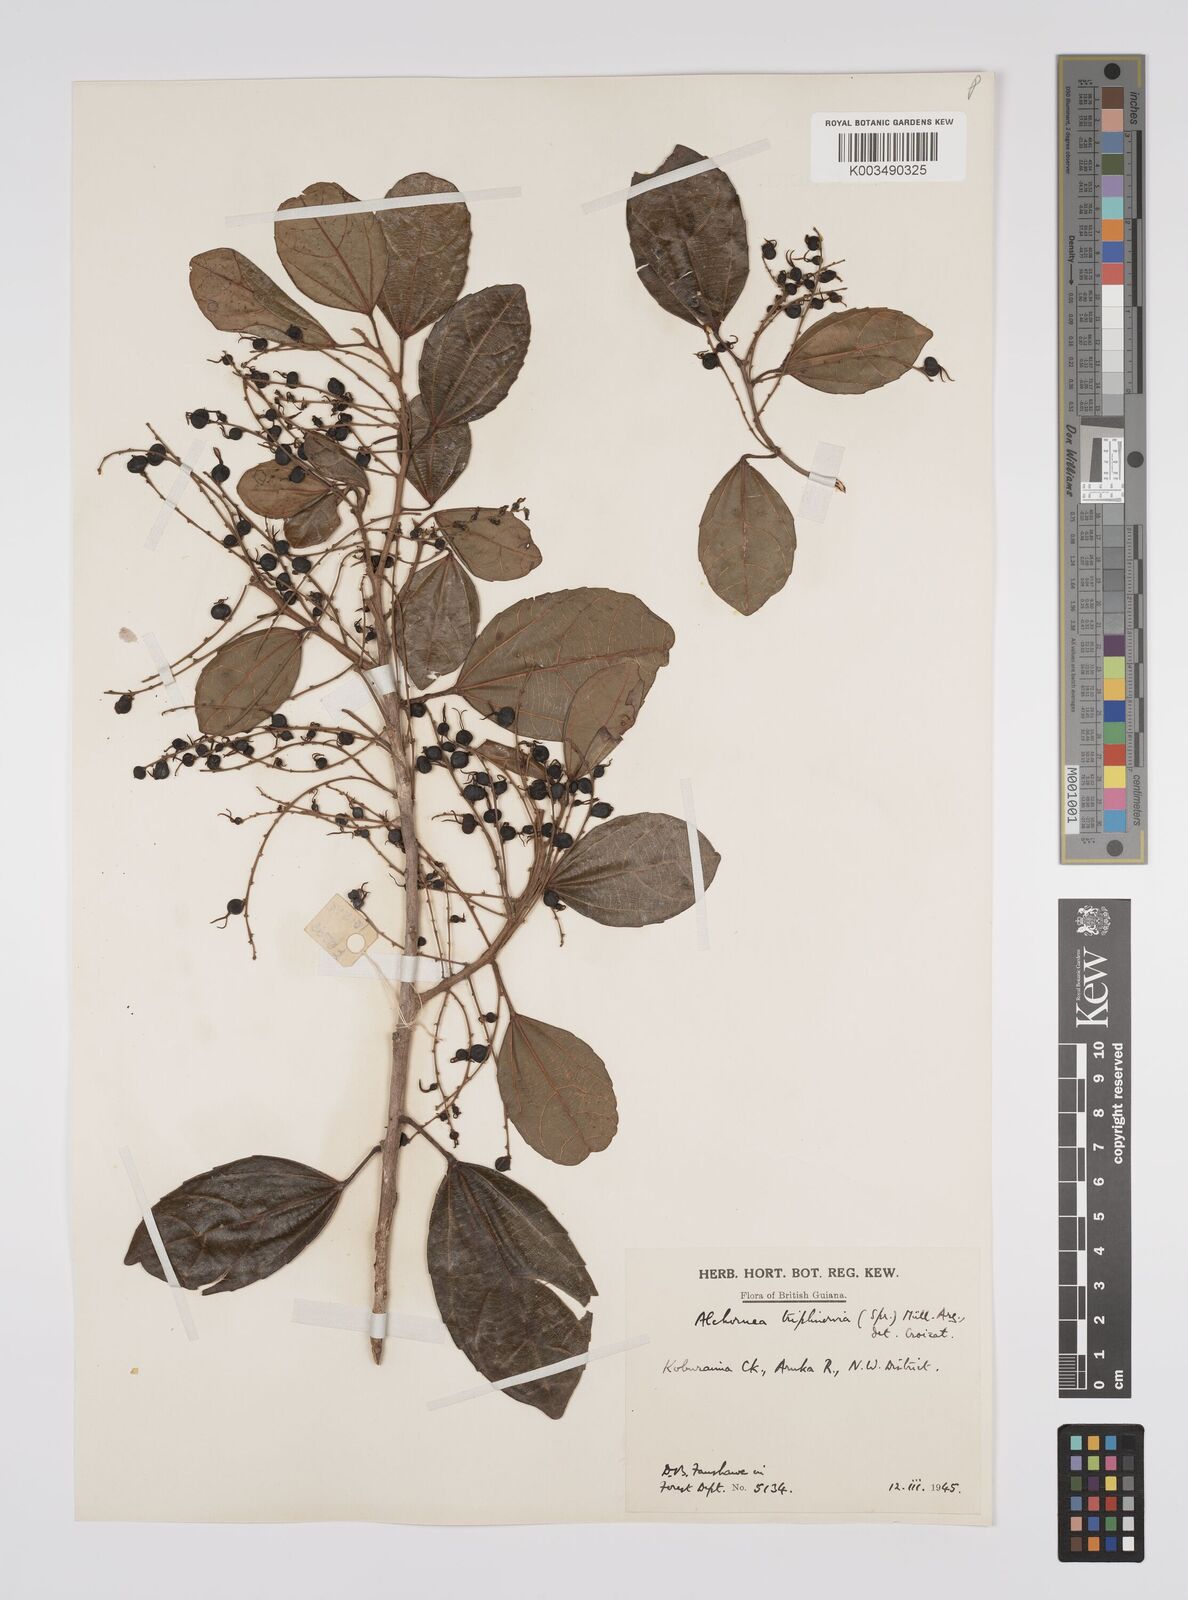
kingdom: Plantae
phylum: Tracheophyta
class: Magnoliopsida
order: Malpighiales
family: Euphorbiaceae
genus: Alchornea
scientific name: Alchornea triplinervia
